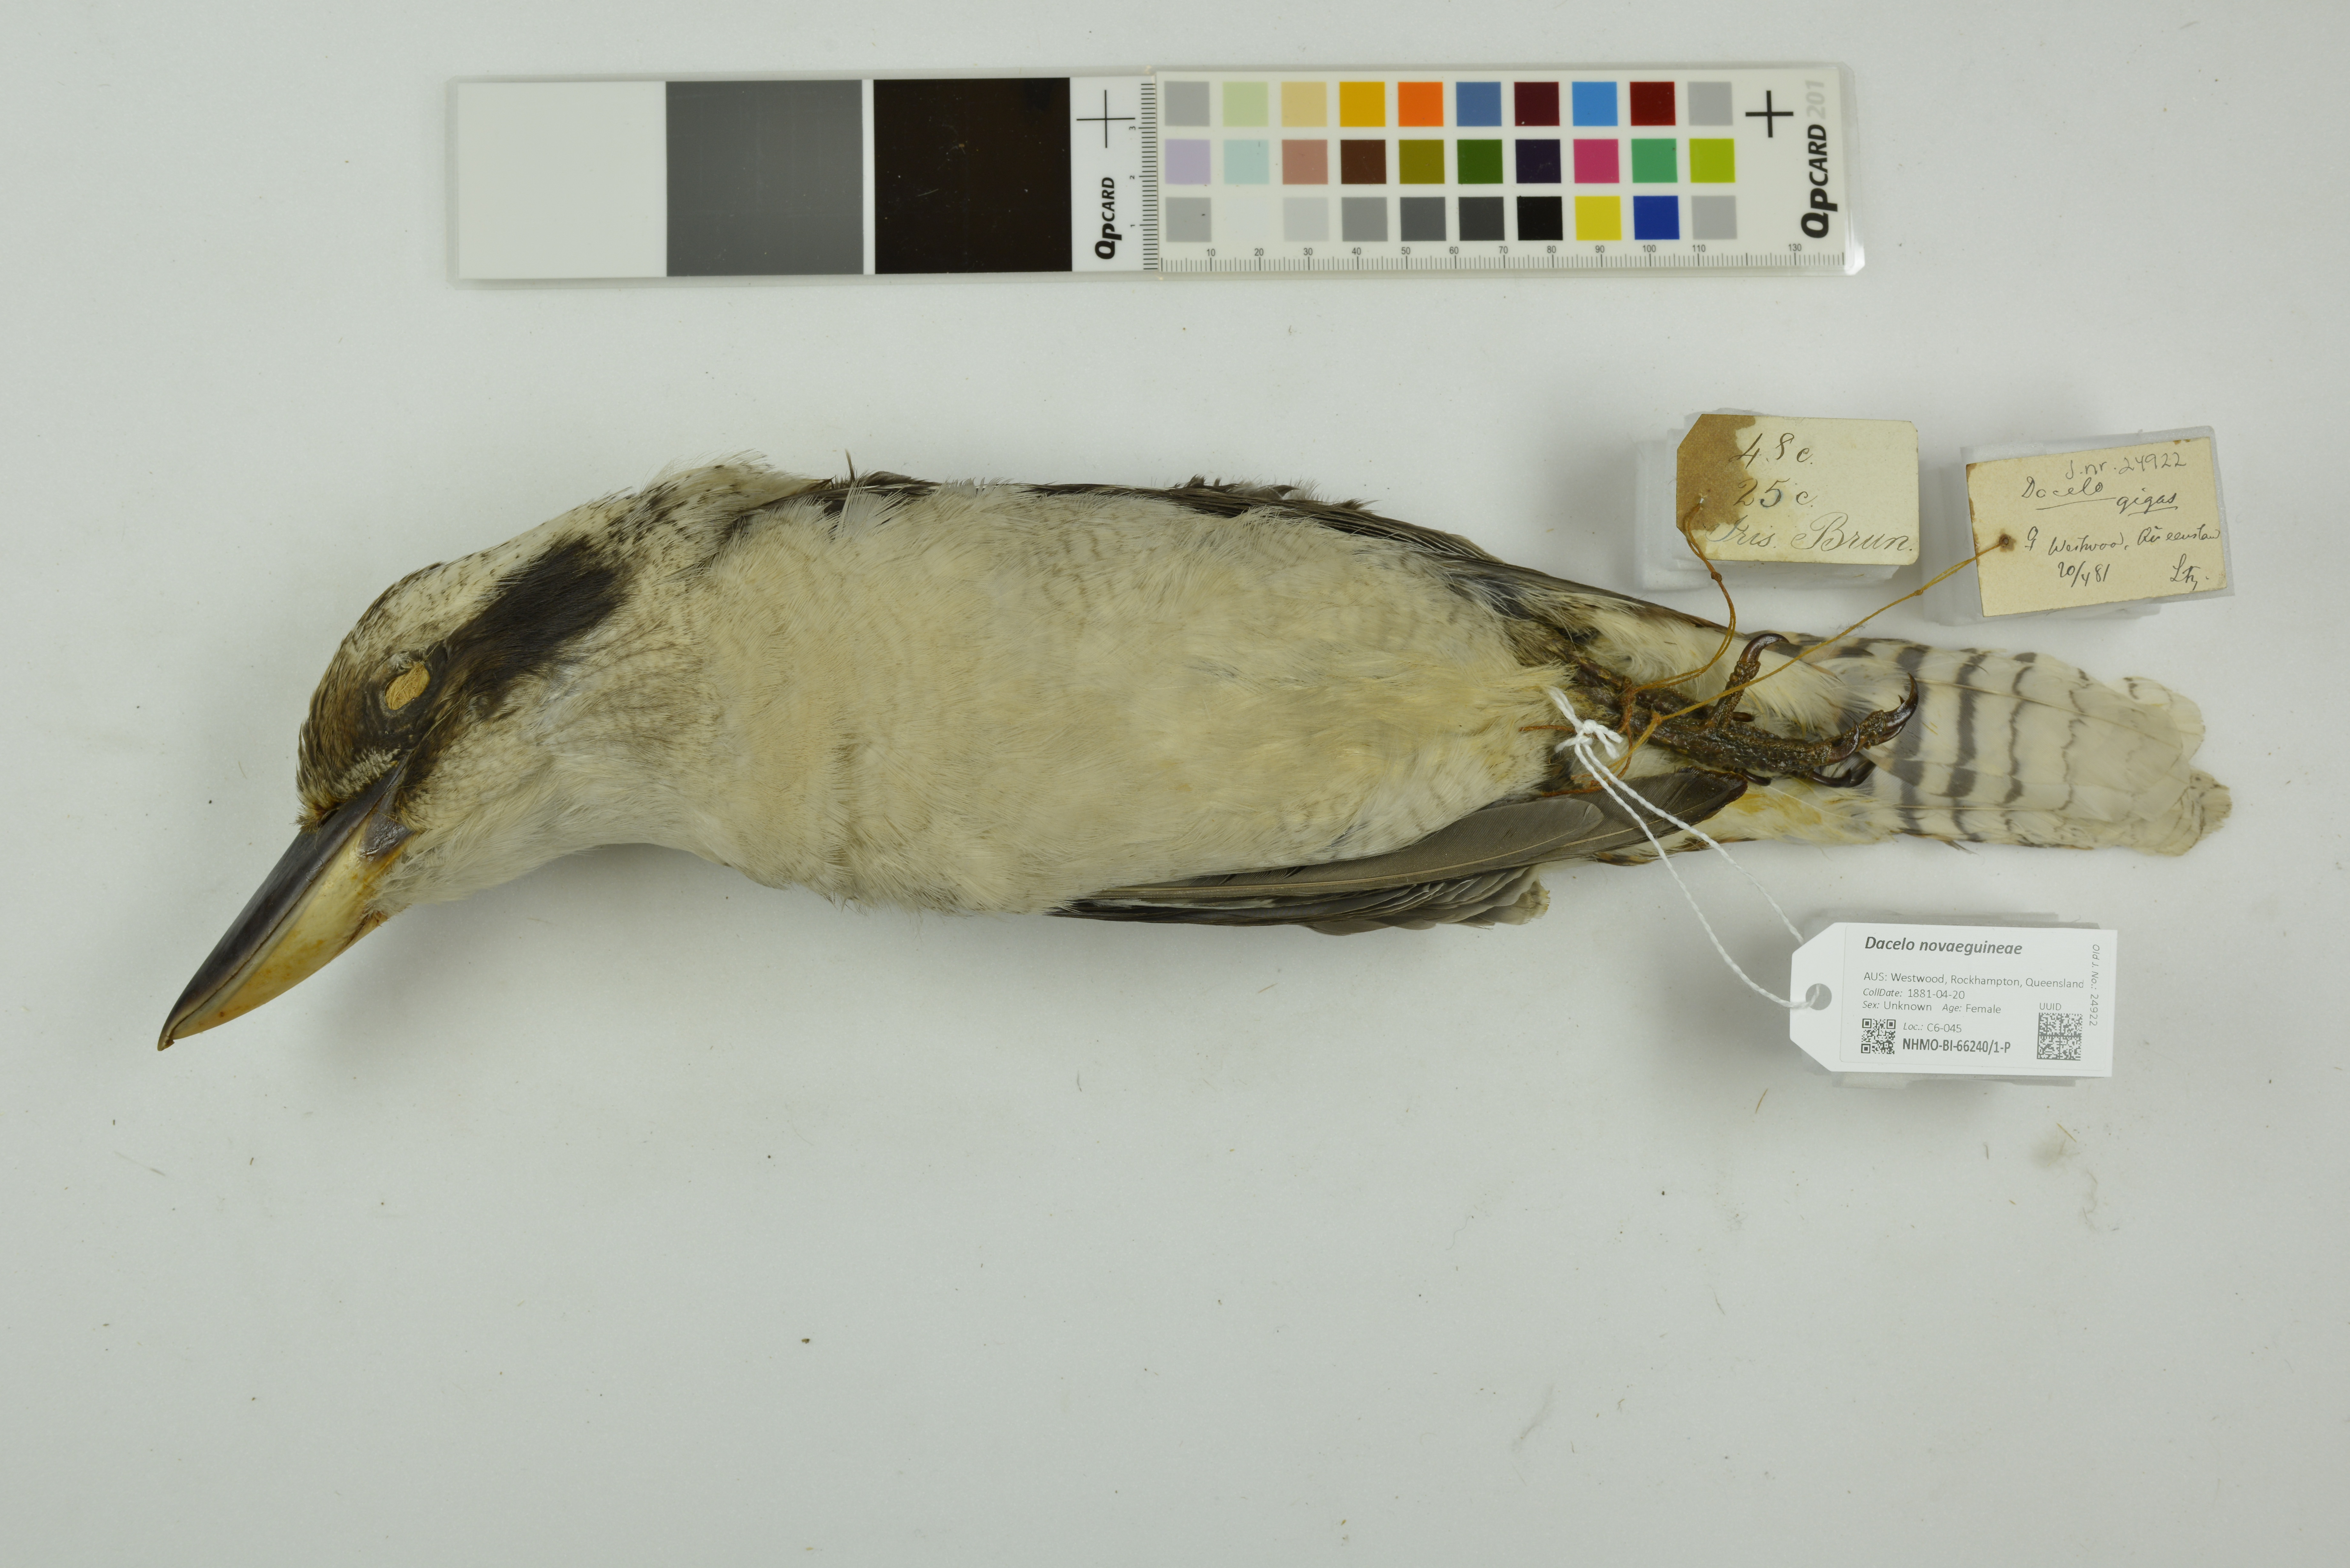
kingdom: Animalia
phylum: Chordata
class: Aves
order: Coraciiformes
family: Alcedinidae
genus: Dacelo
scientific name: Dacelo novaeguineae
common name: Laughing kookaburra
